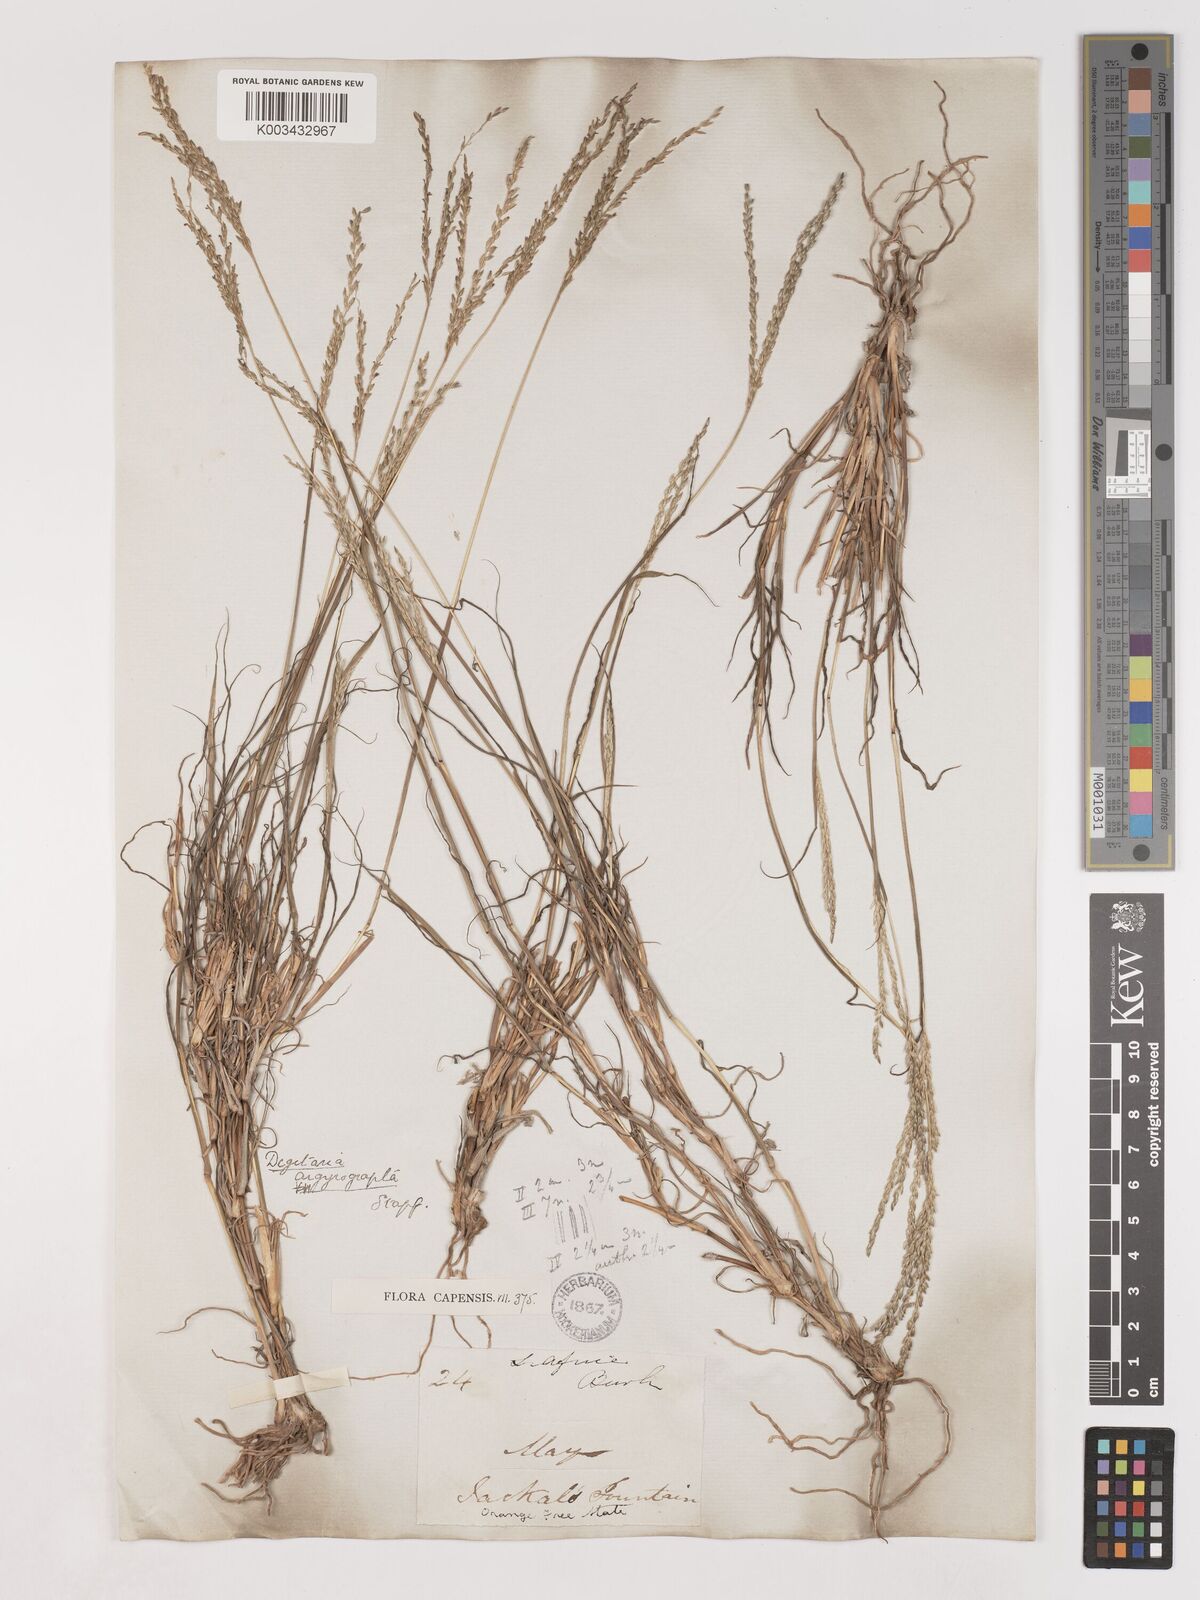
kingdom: Plantae
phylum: Tracheophyta
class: Liliopsida
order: Poales
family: Poaceae
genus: Digitaria
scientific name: Digitaria argyrograpta
